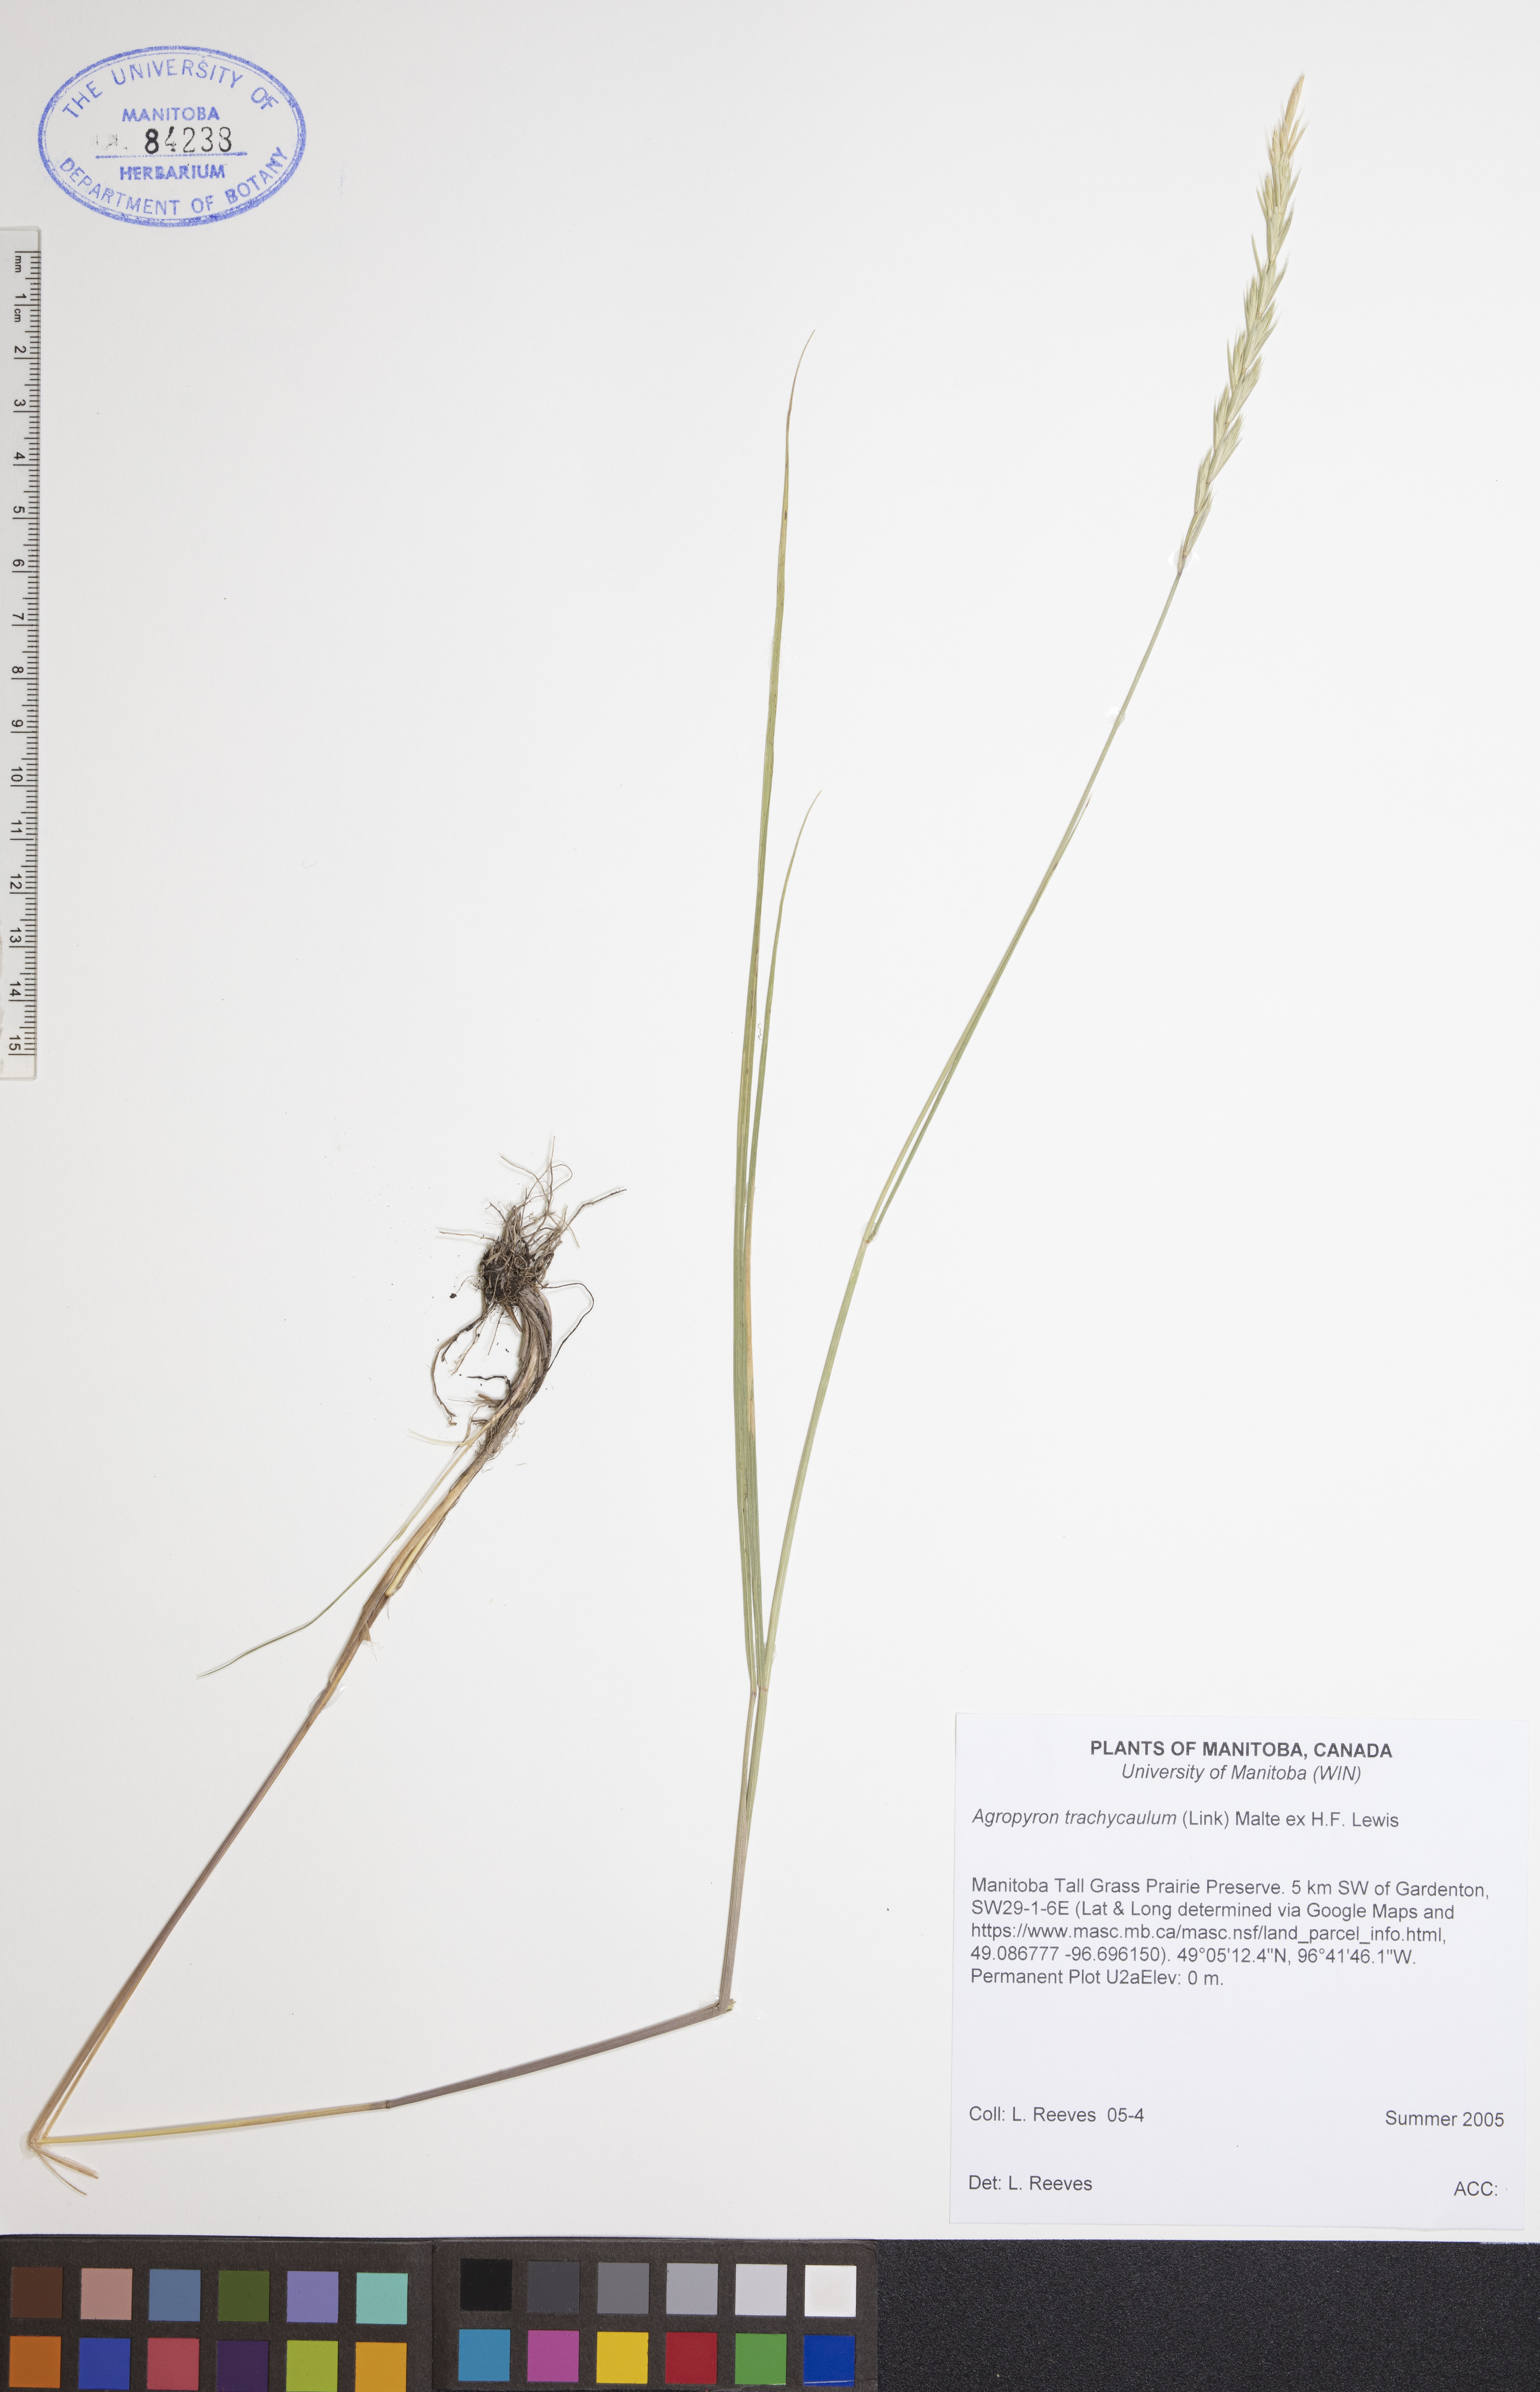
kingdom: Plantae
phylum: Tracheophyta
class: Liliopsida
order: Poales
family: Poaceae
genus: Elymus
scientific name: Elymus violaceus
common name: Arctic wheatgrass
